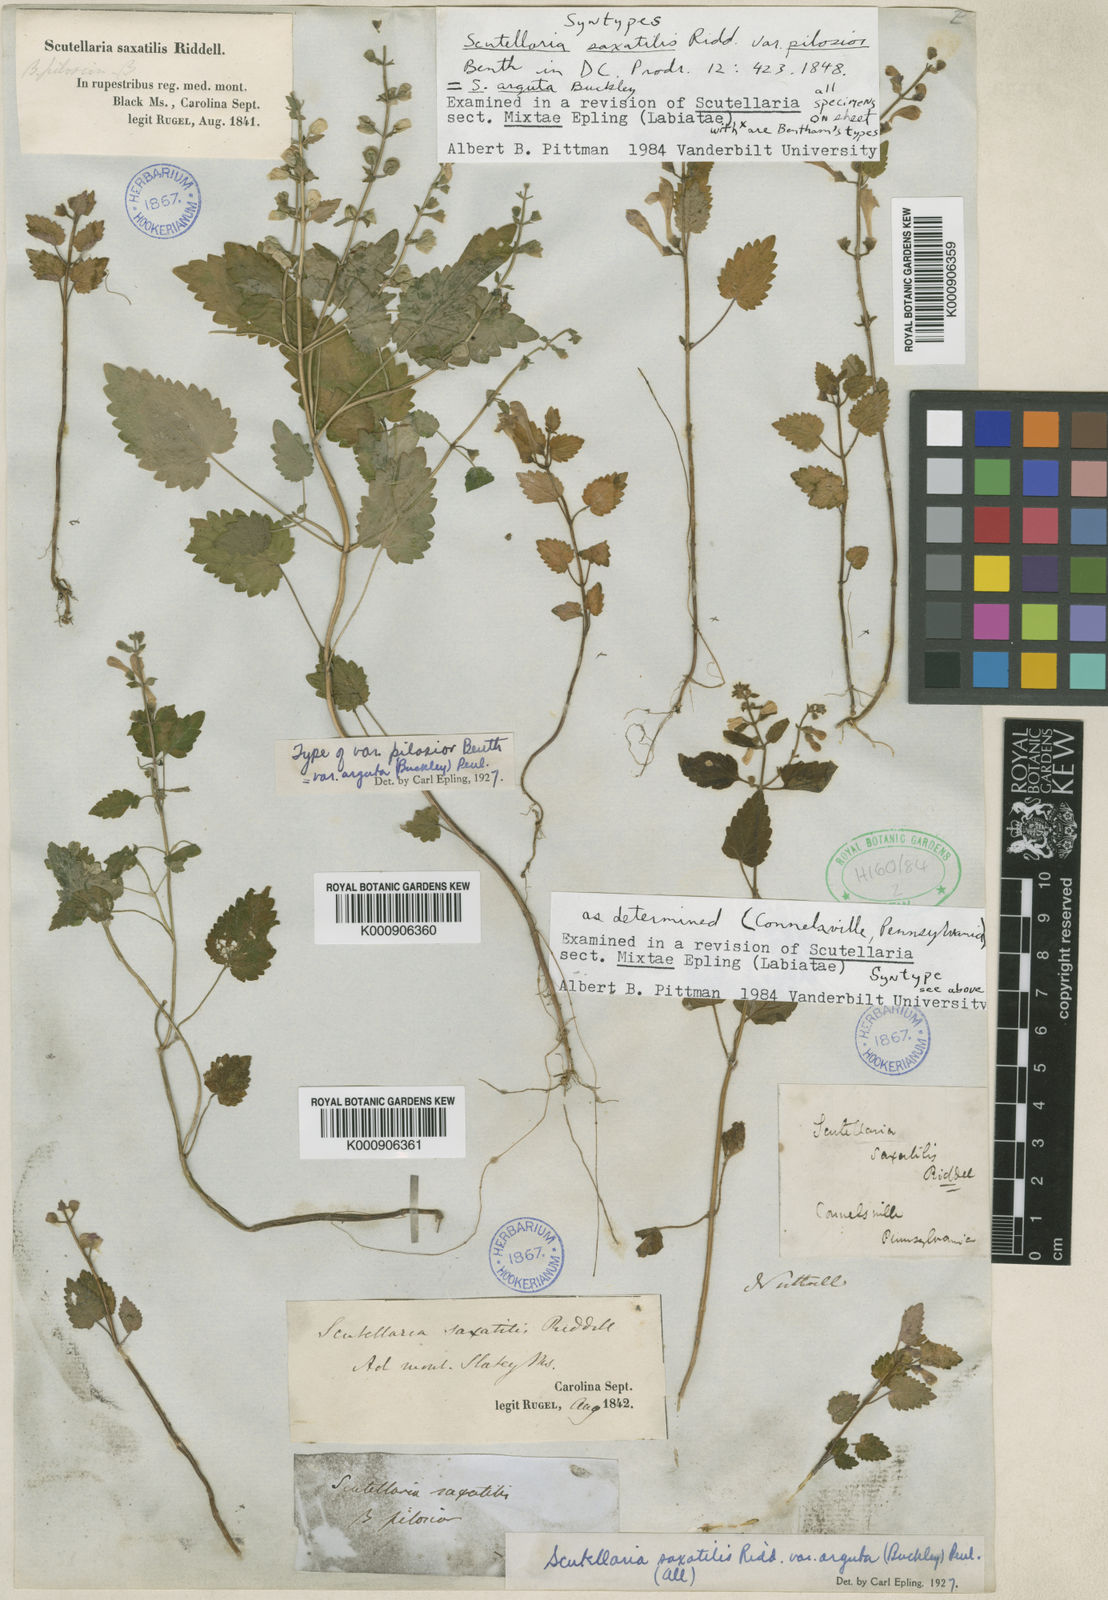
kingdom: Plantae
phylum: Tracheophyta
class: Magnoliopsida
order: Lamiales
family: Lamiaceae
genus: Scutellaria
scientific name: Scutellaria arguta
